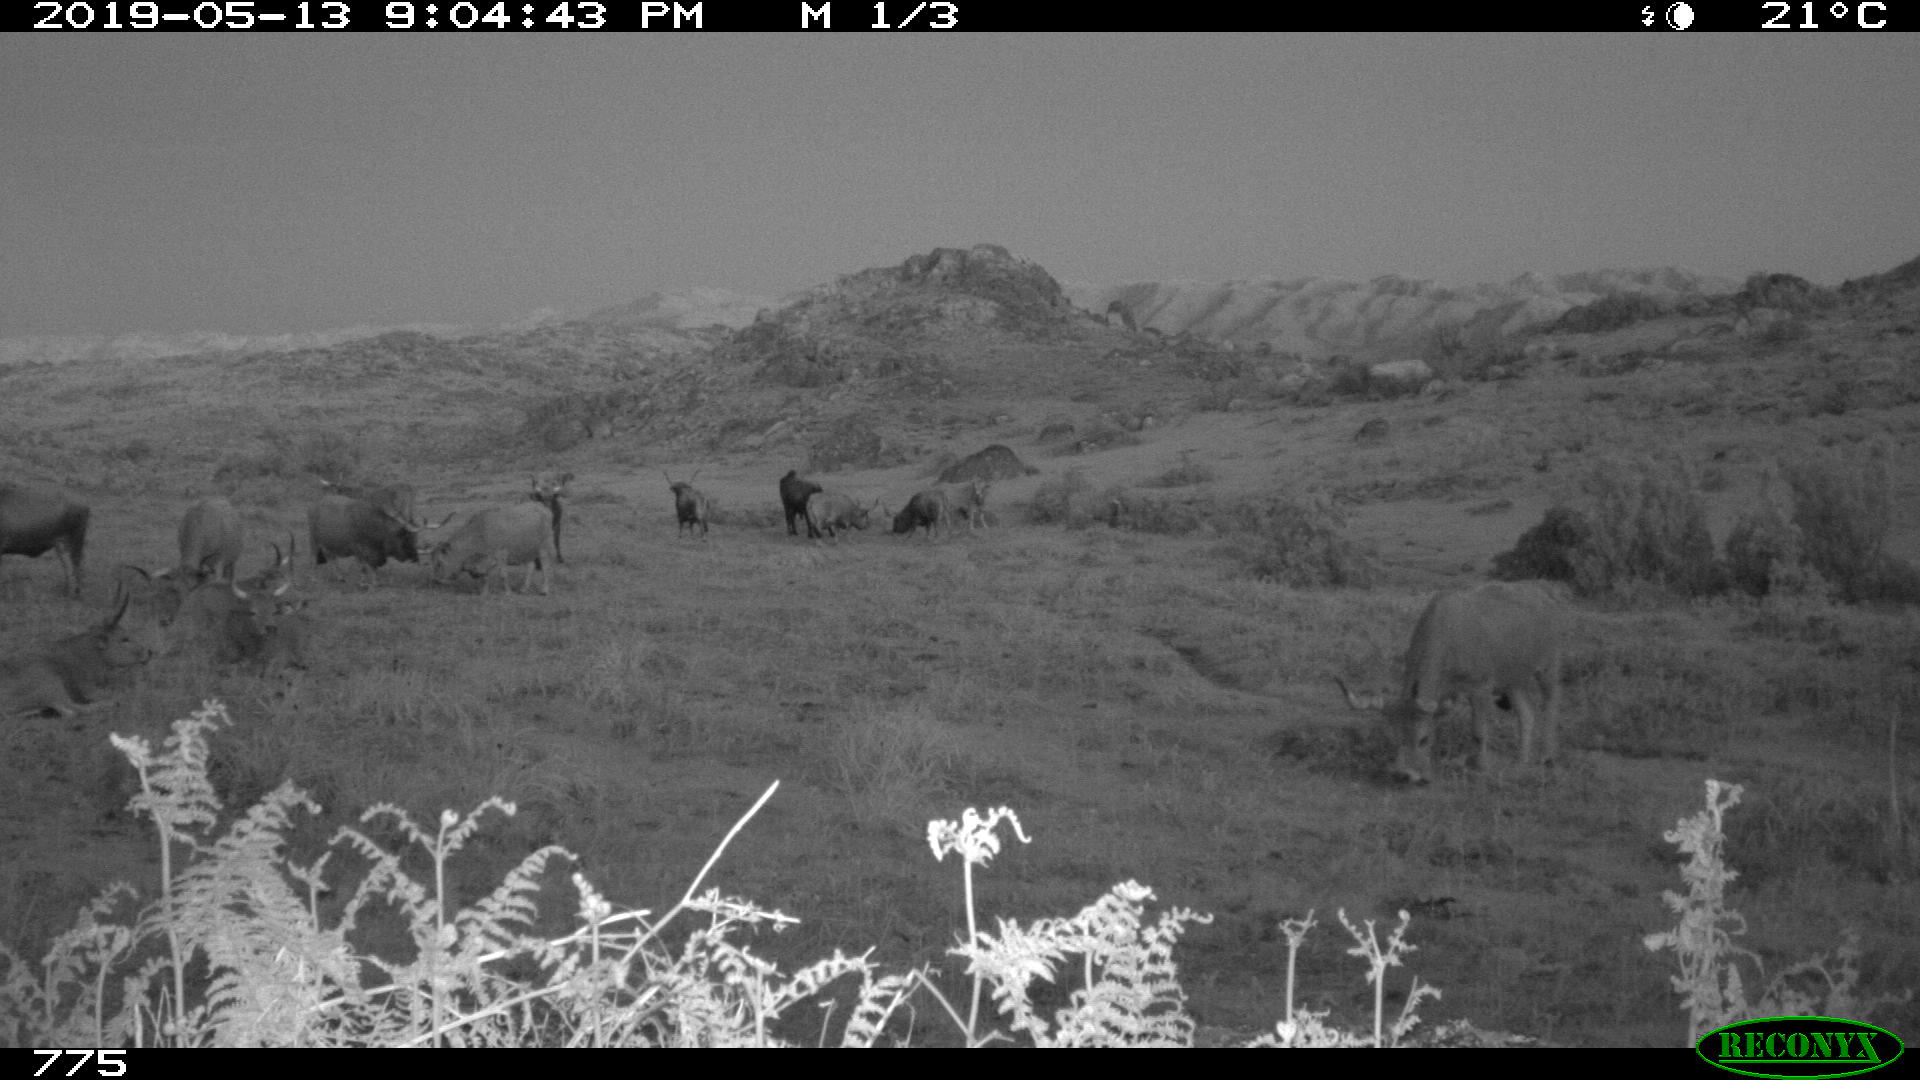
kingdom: Animalia
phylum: Chordata
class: Mammalia
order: Artiodactyla
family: Bovidae
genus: Bos
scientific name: Bos taurus
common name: Domesticated cattle
